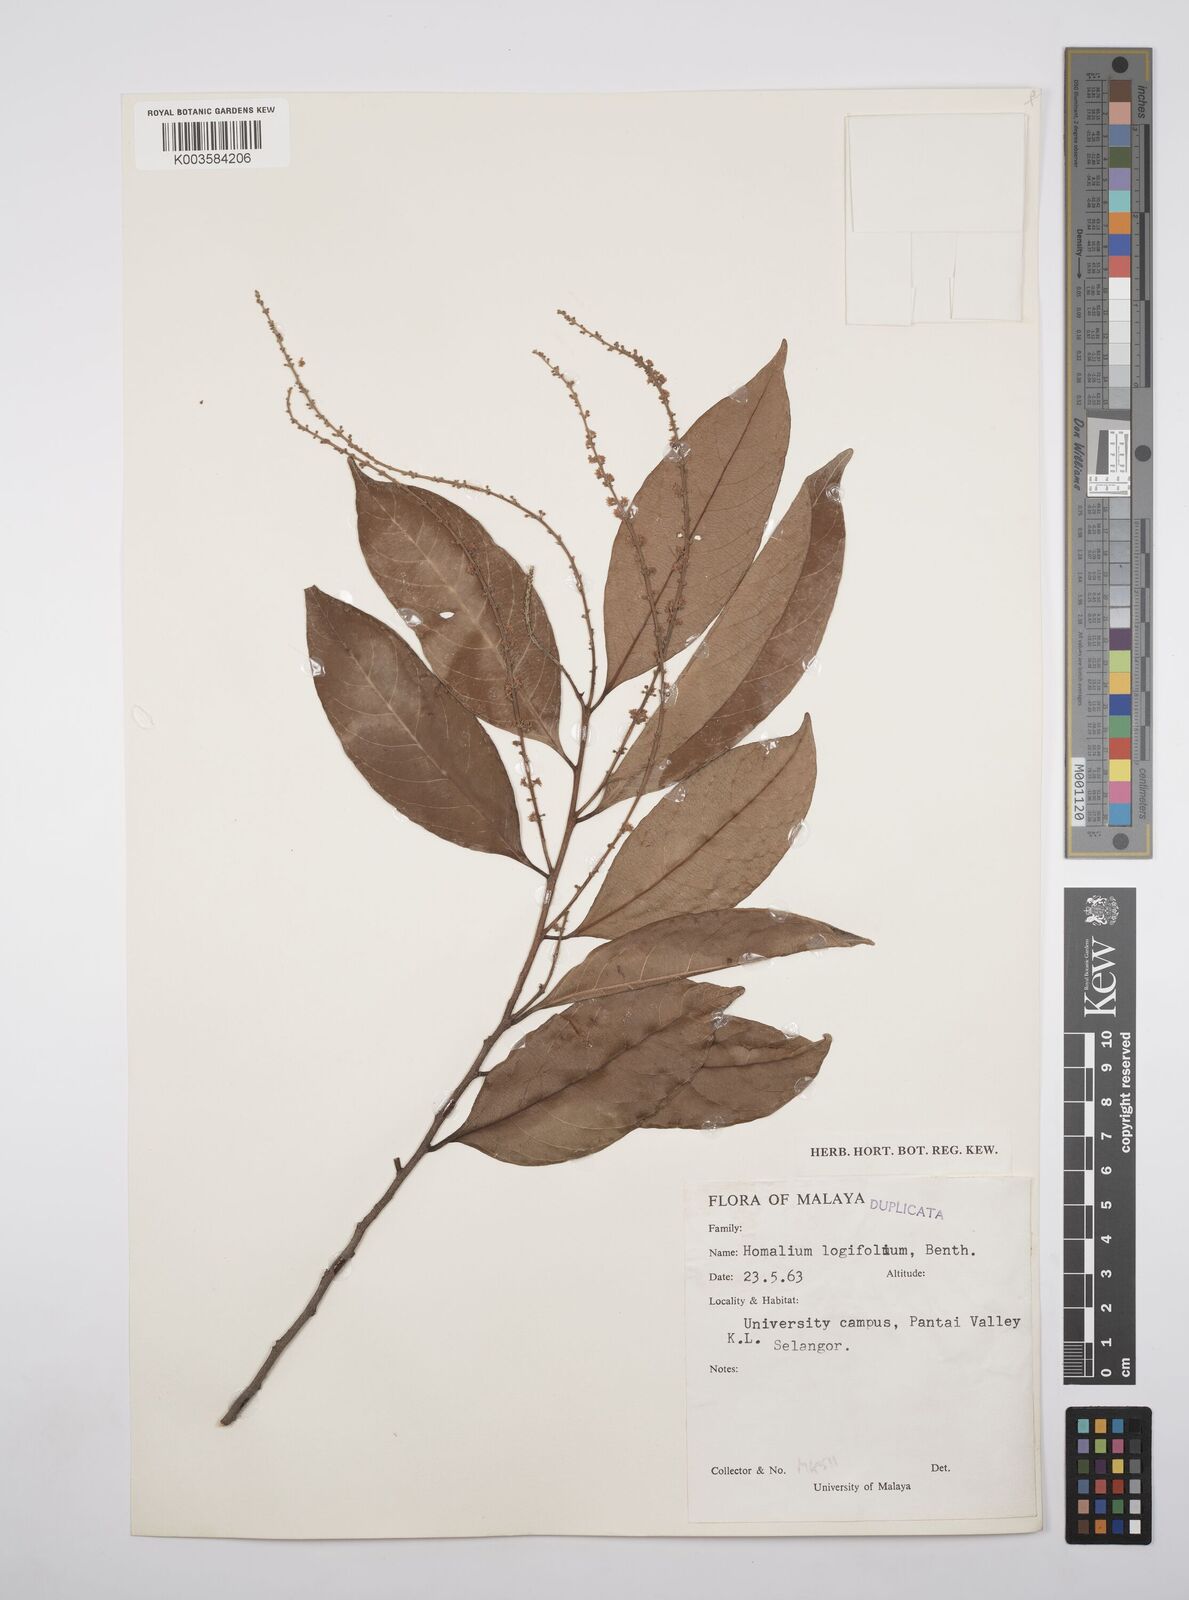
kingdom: Plantae
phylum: Tracheophyta
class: Magnoliopsida
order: Malpighiales
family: Salicaceae
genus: Homalium
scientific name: Homalium longifolium
